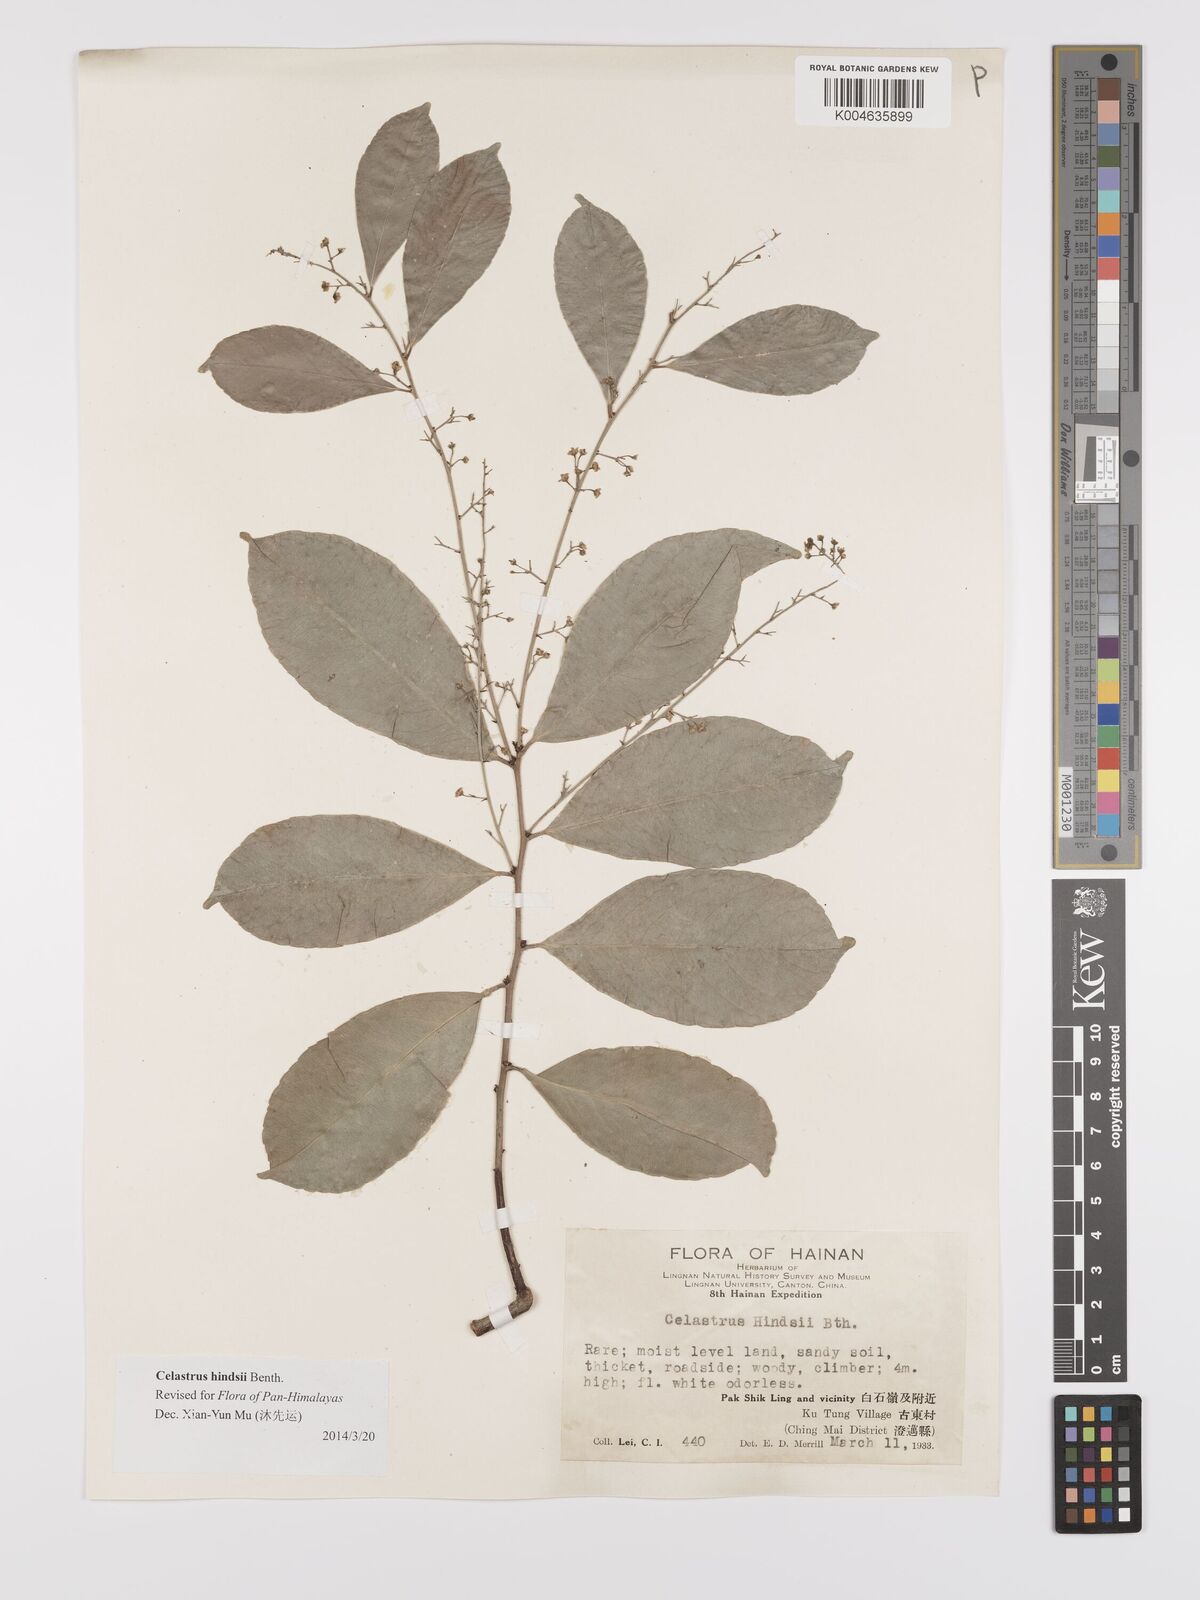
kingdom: Plantae
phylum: Tracheophyta
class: Magnoliopsida
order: Celastrales
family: Celastraceae
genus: Celastrus
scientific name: Celastrus hindsii
